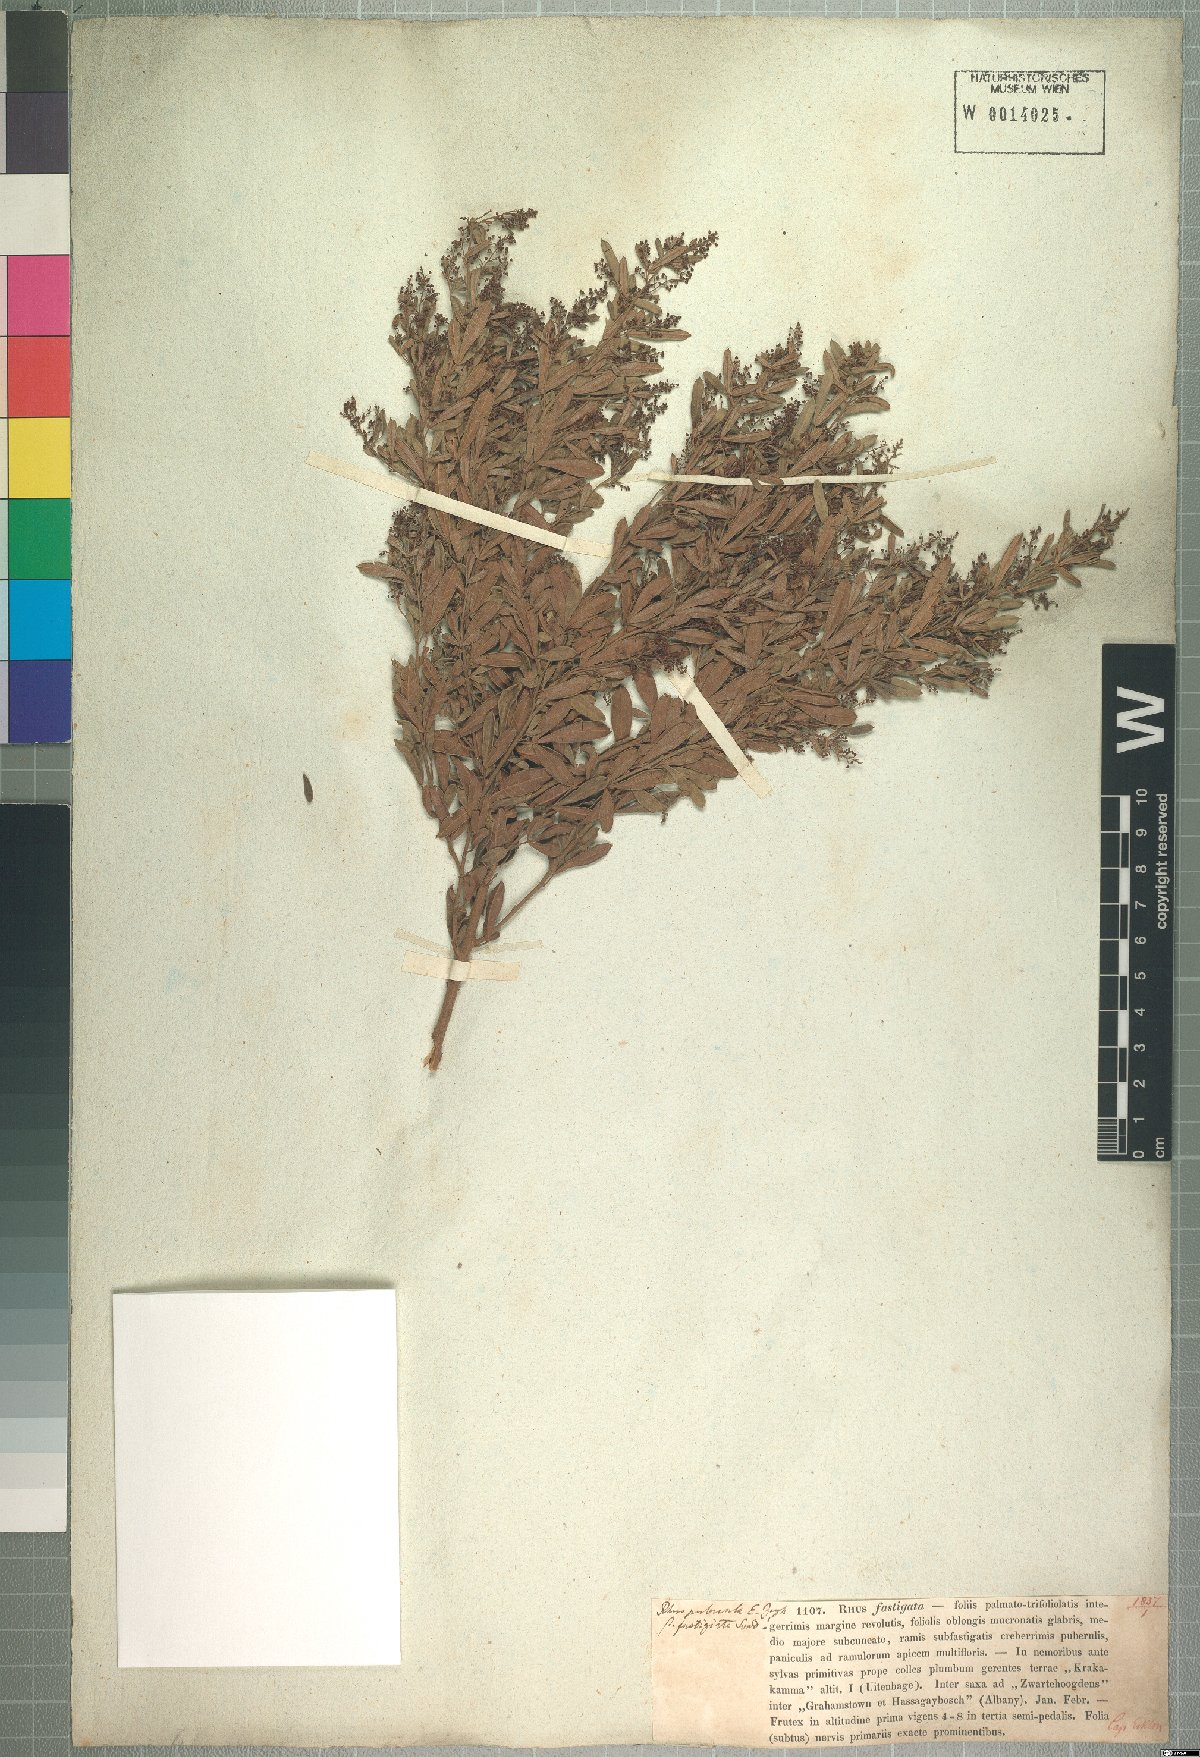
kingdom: Plantae
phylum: Tracheophyta
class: Magnoliopsida
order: Sapindales
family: Anacardiaceae
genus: Searsia
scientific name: Searsia fastigiata
